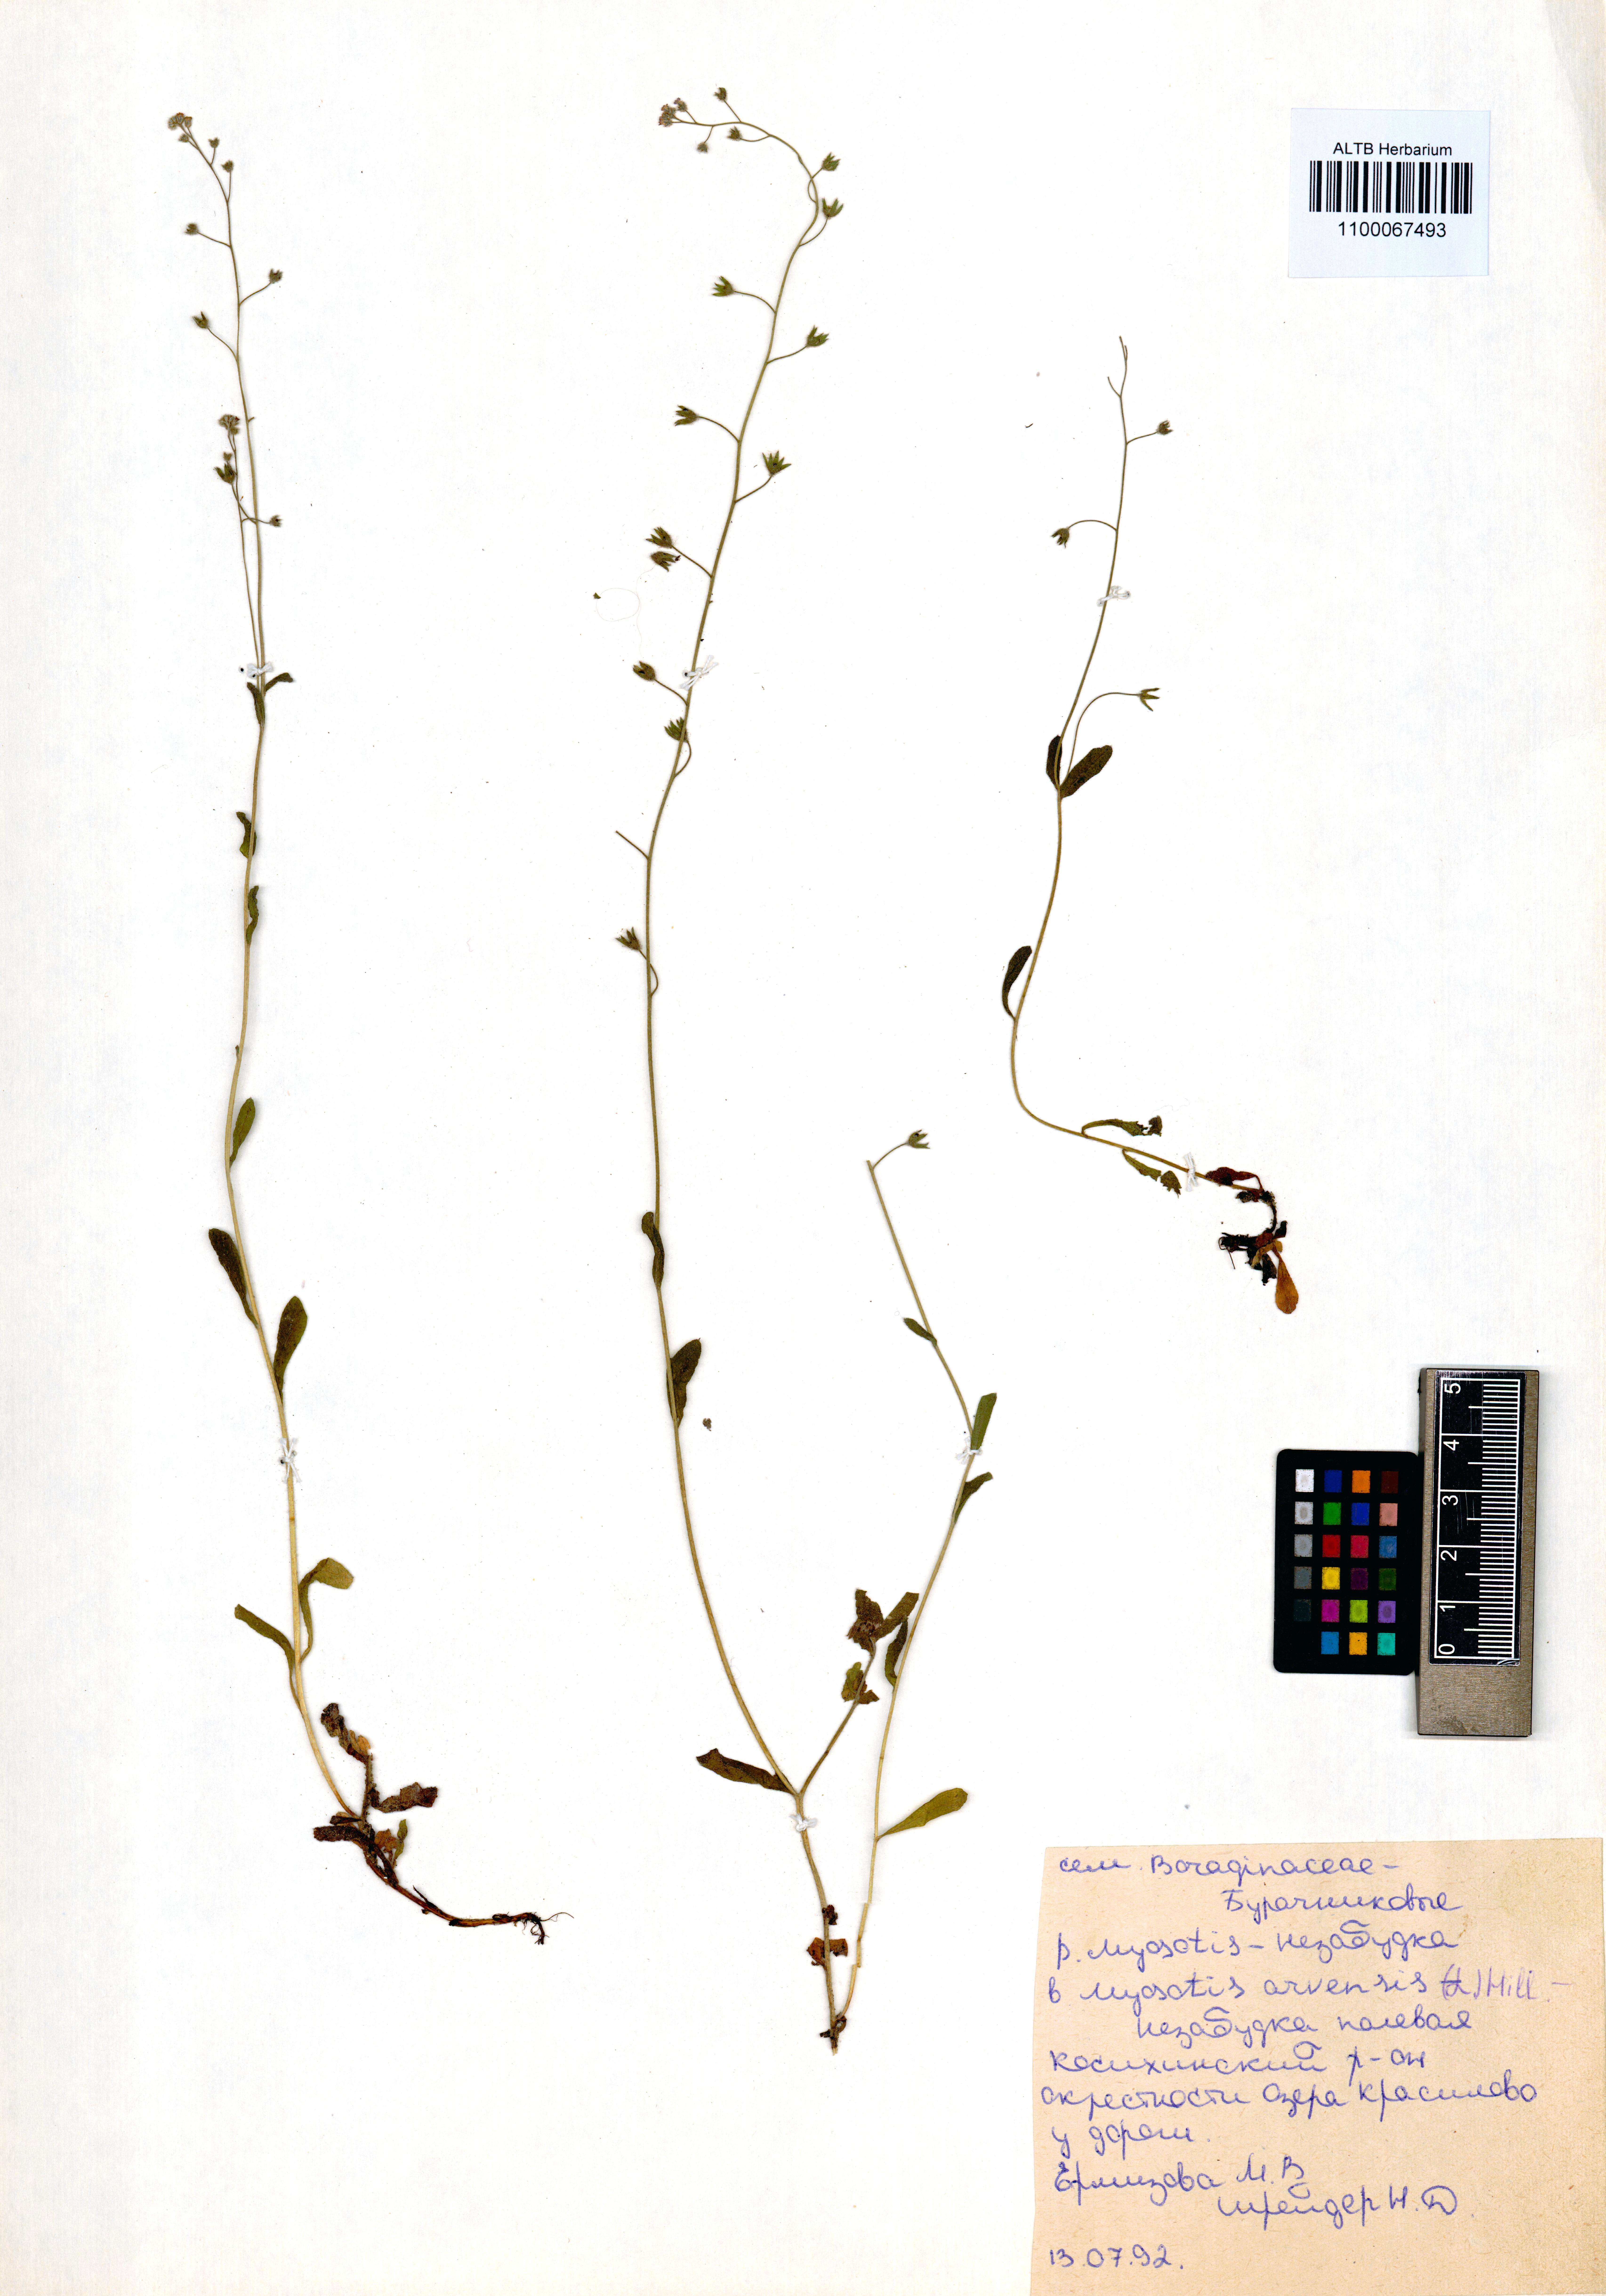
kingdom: Plantae
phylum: Tracheophyta
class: Magnoliopsida
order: Boraginales
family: Boraginaceae
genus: Myosotis
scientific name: Myosotis arvensis
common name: Field forget-me-not
